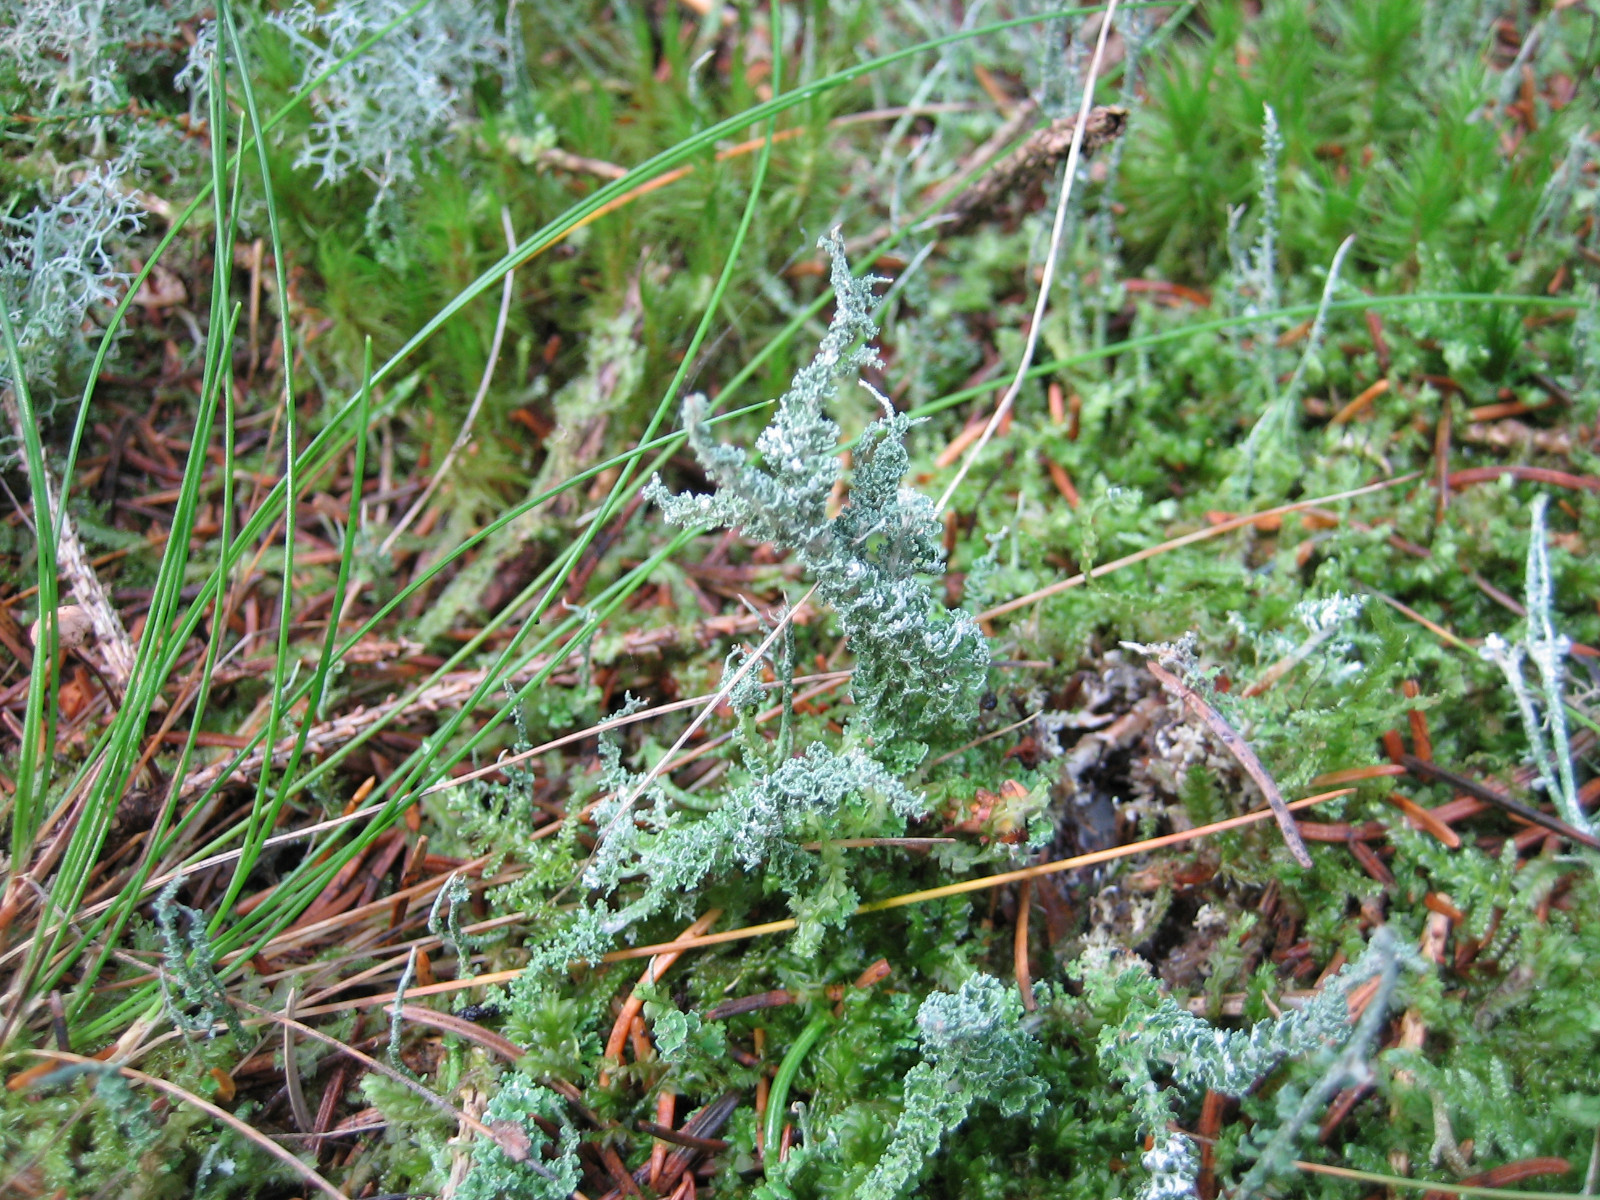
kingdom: Fungi
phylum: Ascomycota
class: Lecanoromycetes
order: Lecanorales
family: Cladoniaceae
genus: Cladonia
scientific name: Cladonia squamosa
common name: skælklædt bægerlav
